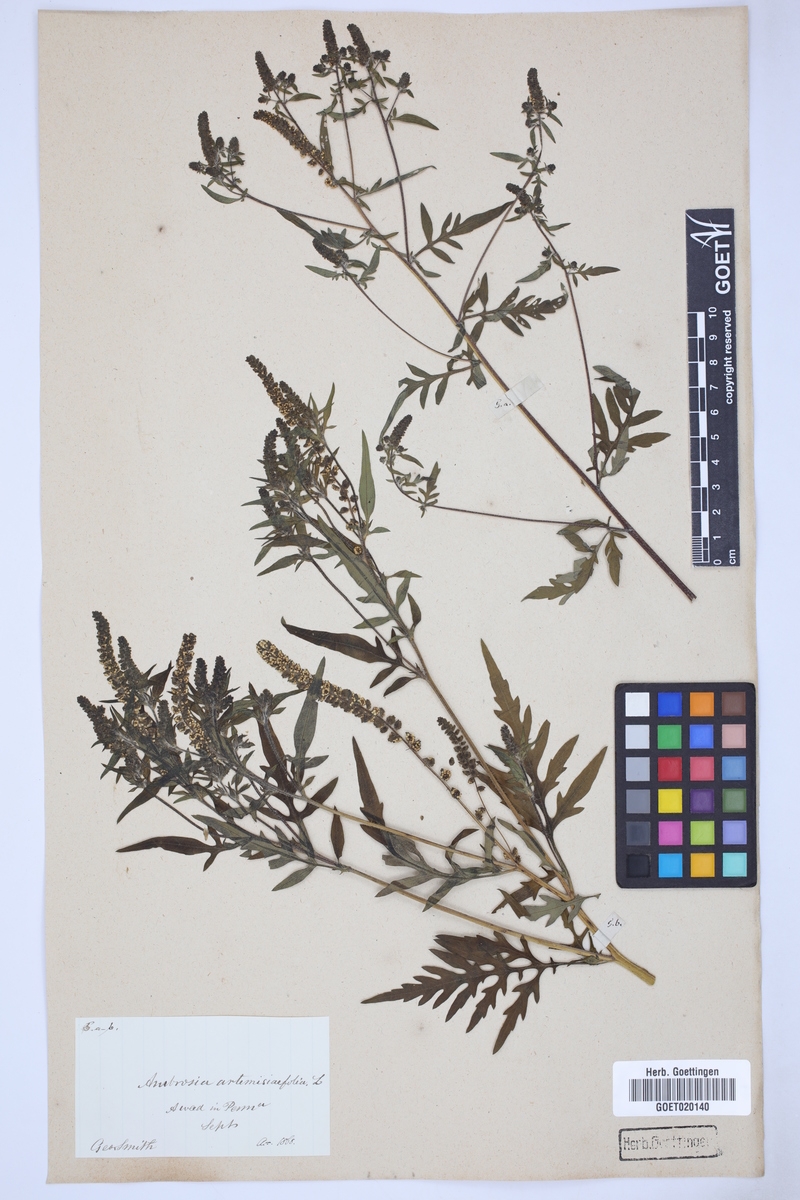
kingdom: Plantae
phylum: Tracheophyta
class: Magnoliopsida
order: Asterales
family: Asteraceae
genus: Ambrosia
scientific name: Ambrosia artemisiifolia
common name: Annual ragweed
